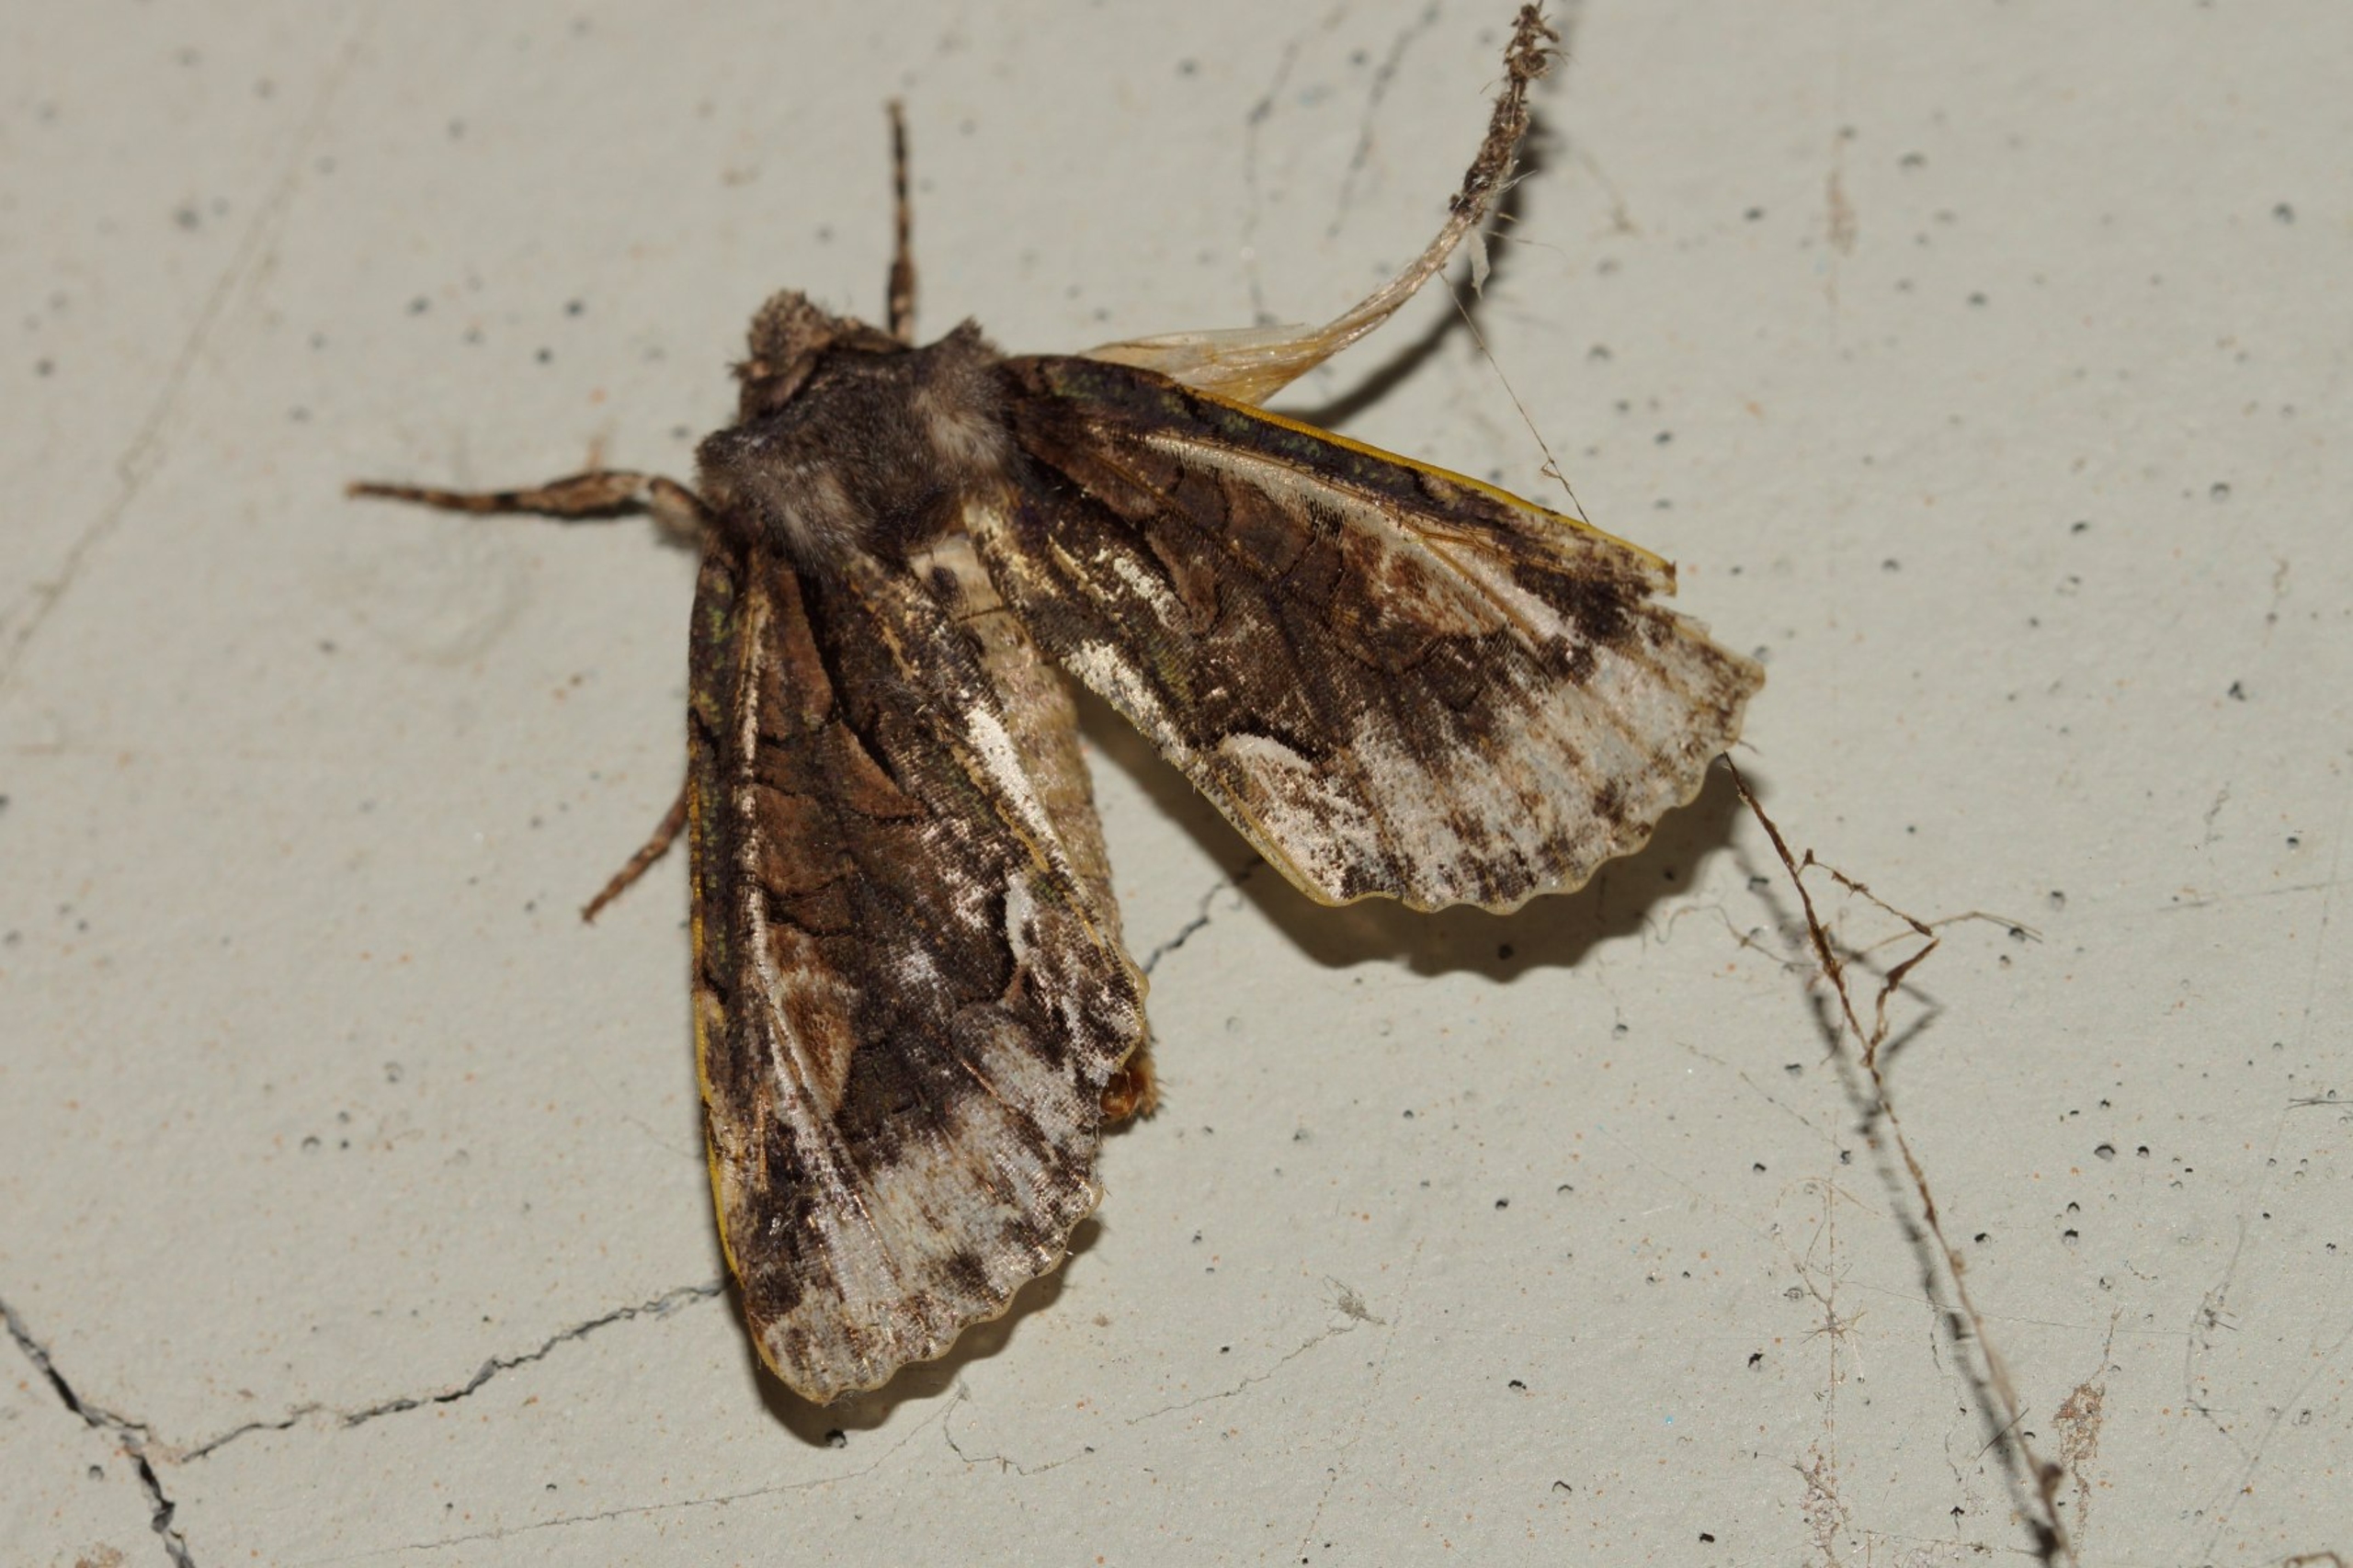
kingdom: Animalia
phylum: Arthropoda
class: Insecta
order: Lepidoptera
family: Noctuidae
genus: Allophyes
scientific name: Allophyes oxyacanthae
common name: Tjørneugle
